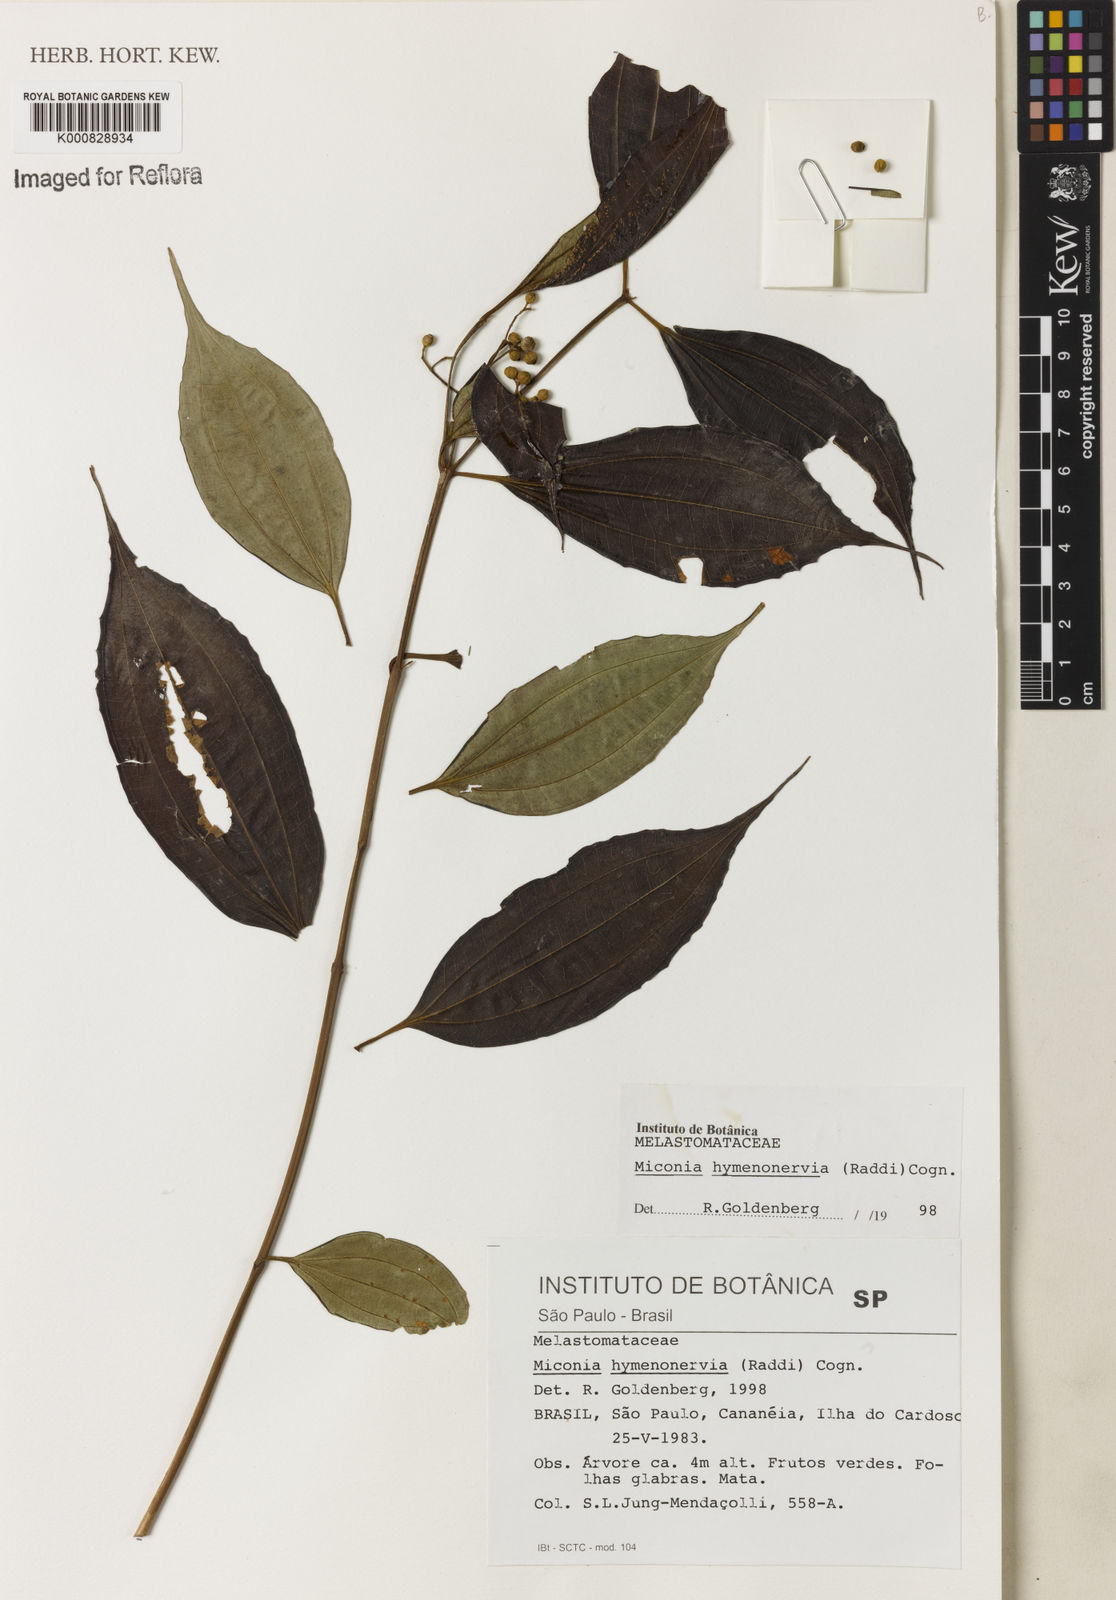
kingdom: Plantae
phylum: Tracheophyta
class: Magnoliopsida
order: Myrtales
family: Melastomataceae
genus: Miconia
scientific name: Miconia hymenonervia
